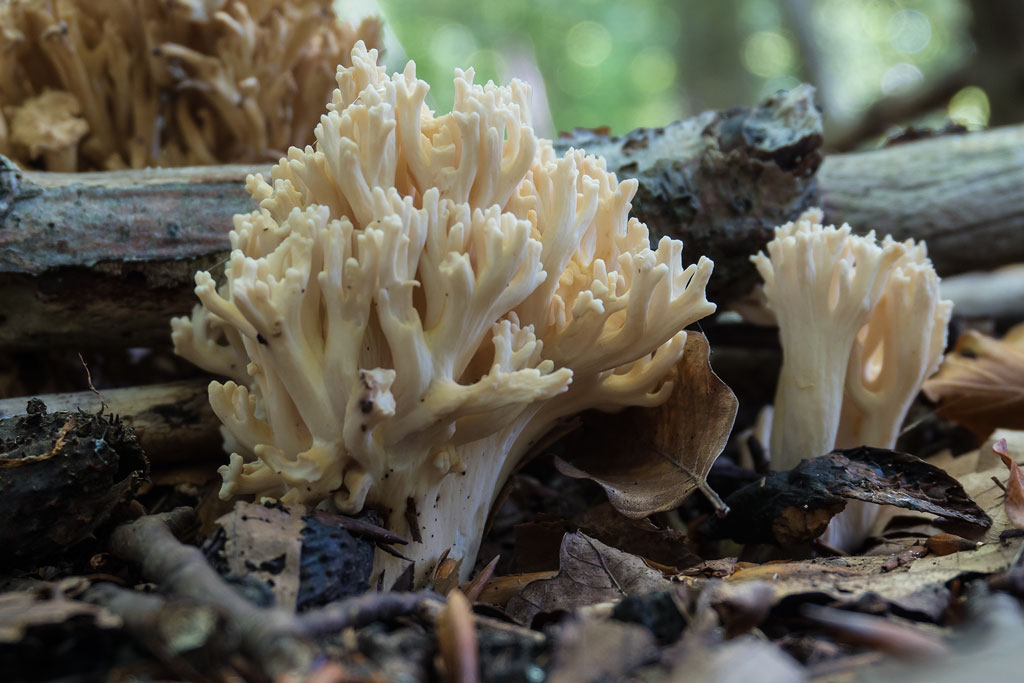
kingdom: Fungi
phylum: Basidiomycota
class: Agaricomycetes
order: Gomphales
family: Gomphaceae
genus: Ramaria
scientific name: Ramaria
